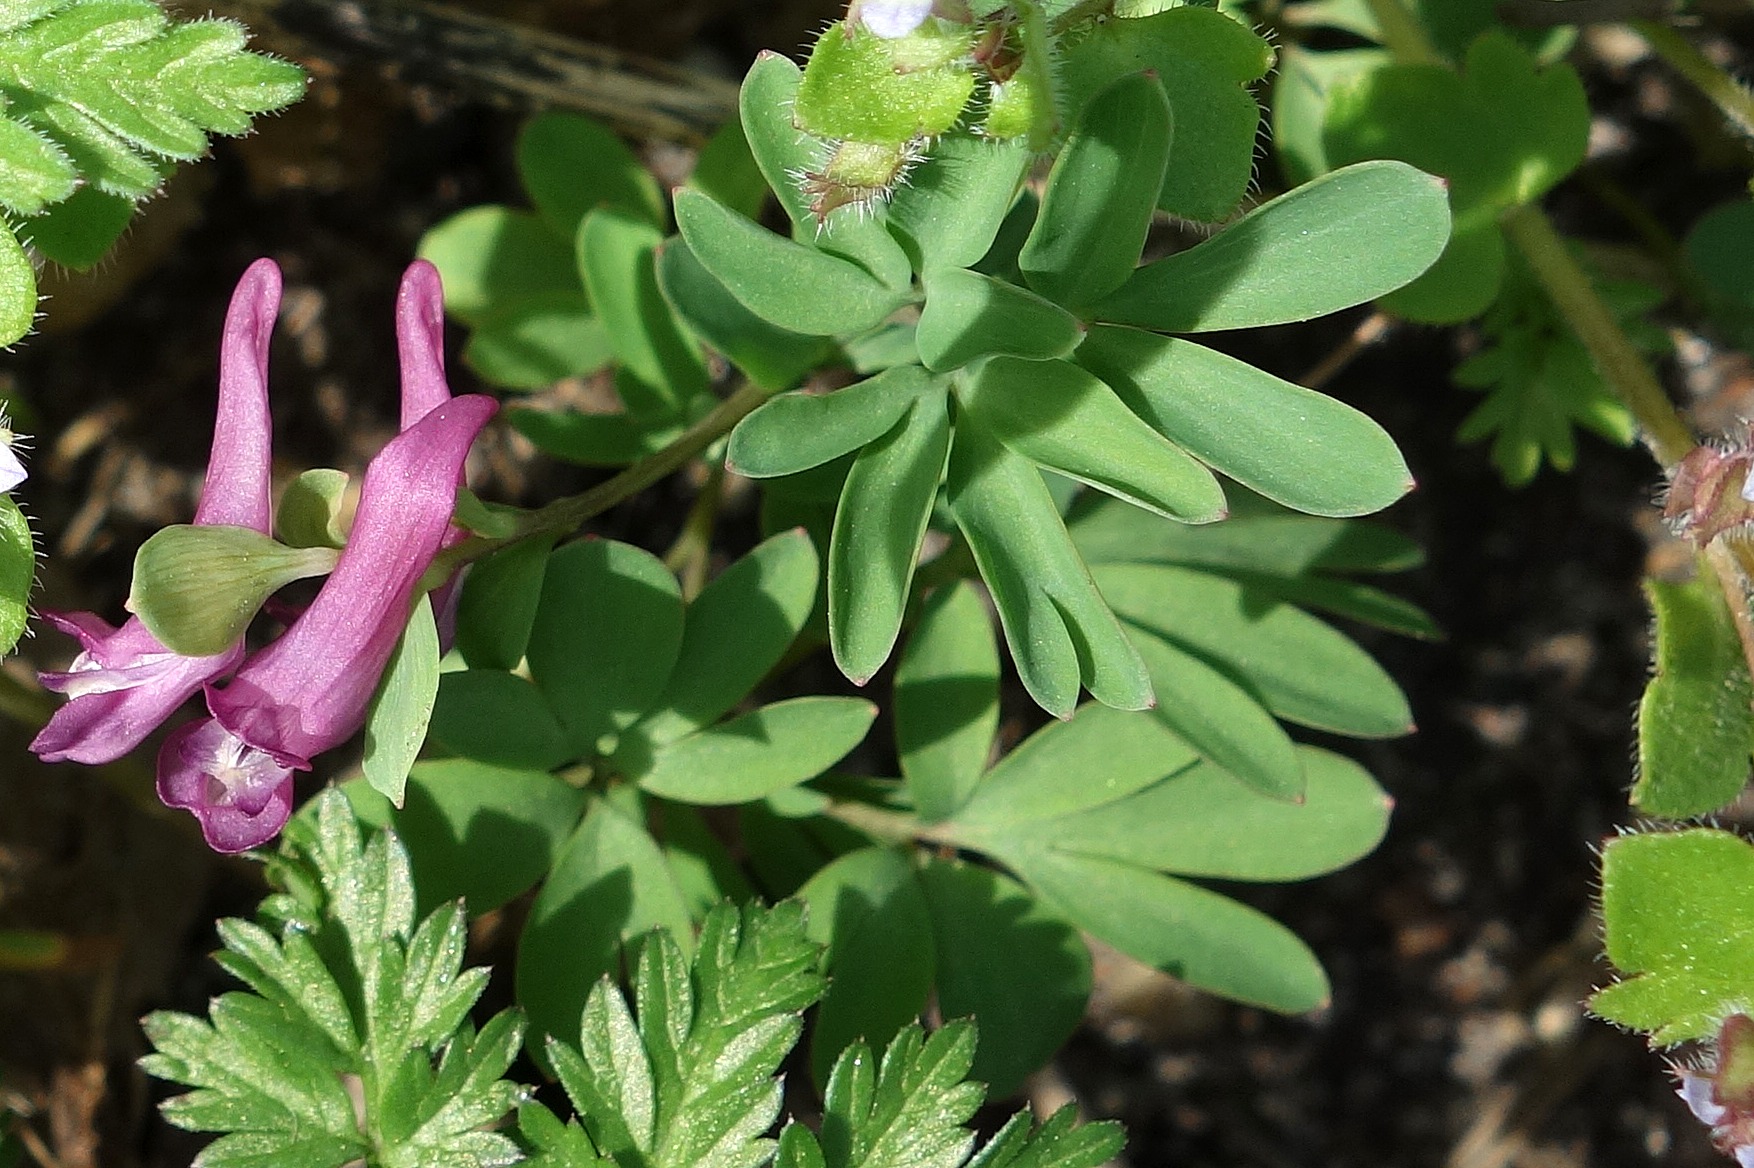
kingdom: Plantae
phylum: Tracheophyta
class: Magnoliopsida
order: Ranunculales
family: Papaveraceae
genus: Corydalis
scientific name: Corydalis intermedia
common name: Liden lærkespore
